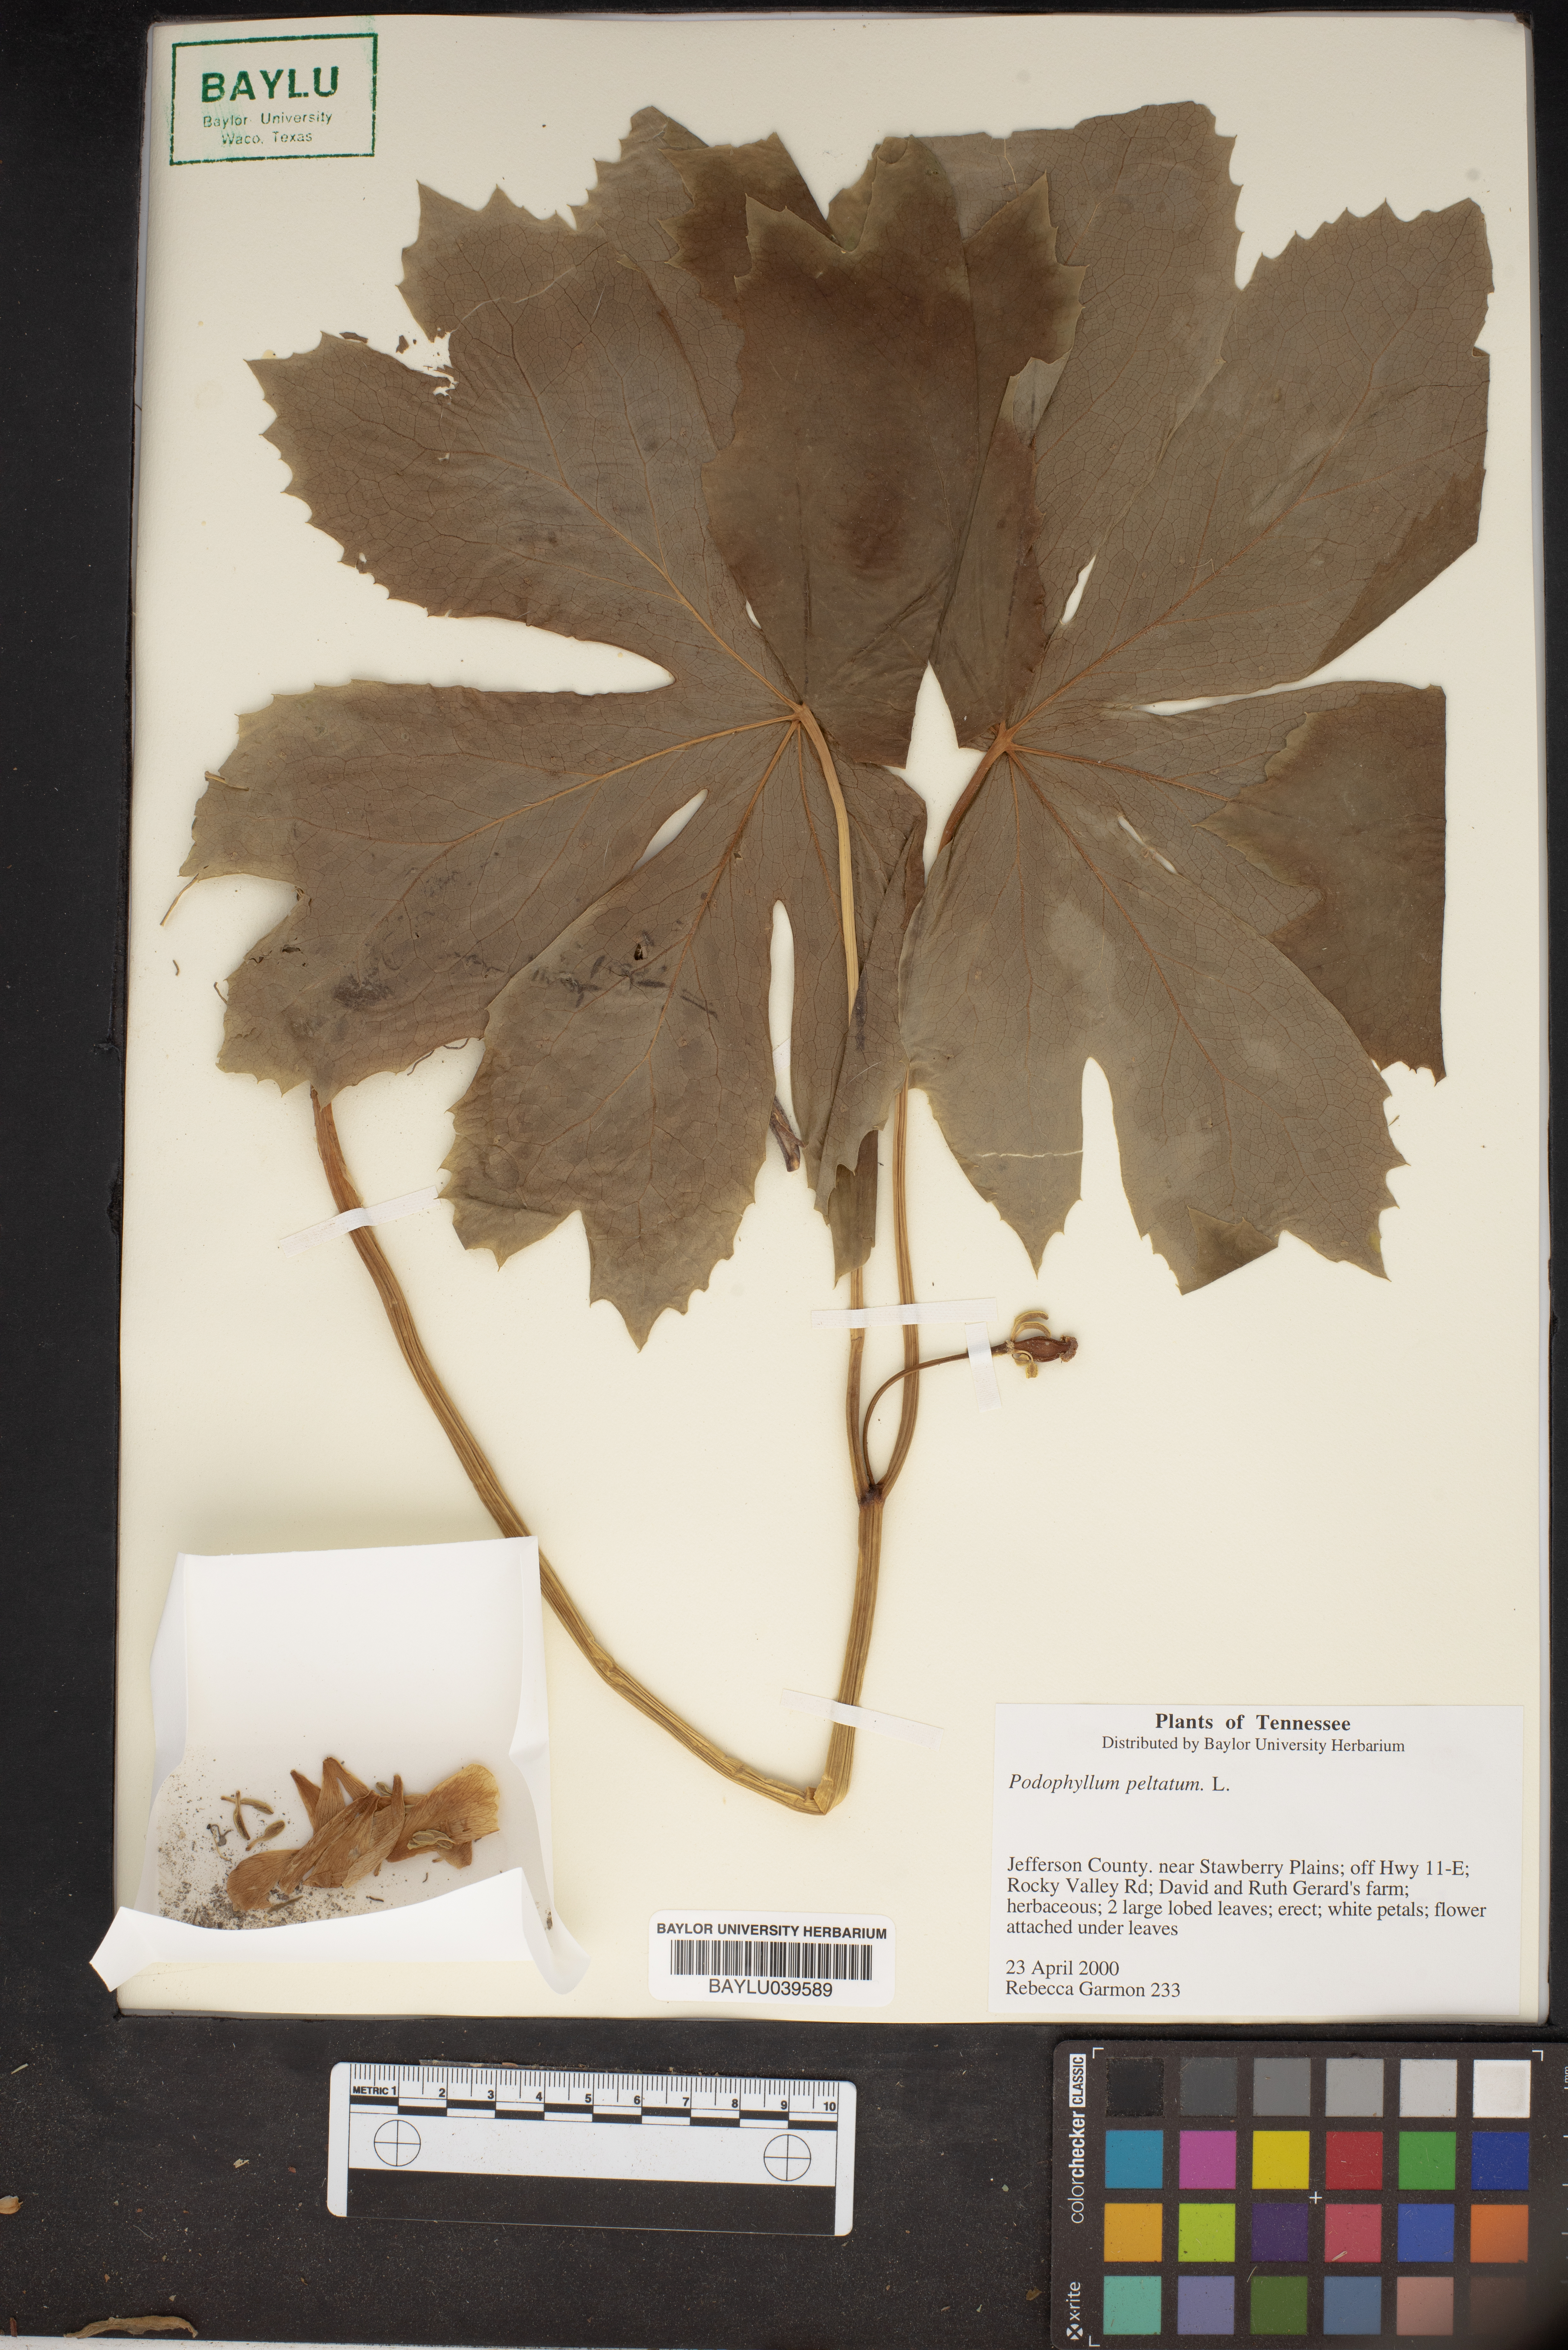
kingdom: Plantae
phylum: Tracheophyta
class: Magnoliopsida
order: Ranunculales
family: Berberidaceae
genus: Podophyllum
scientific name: Podophyllum peltatum
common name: Wild mandrake
